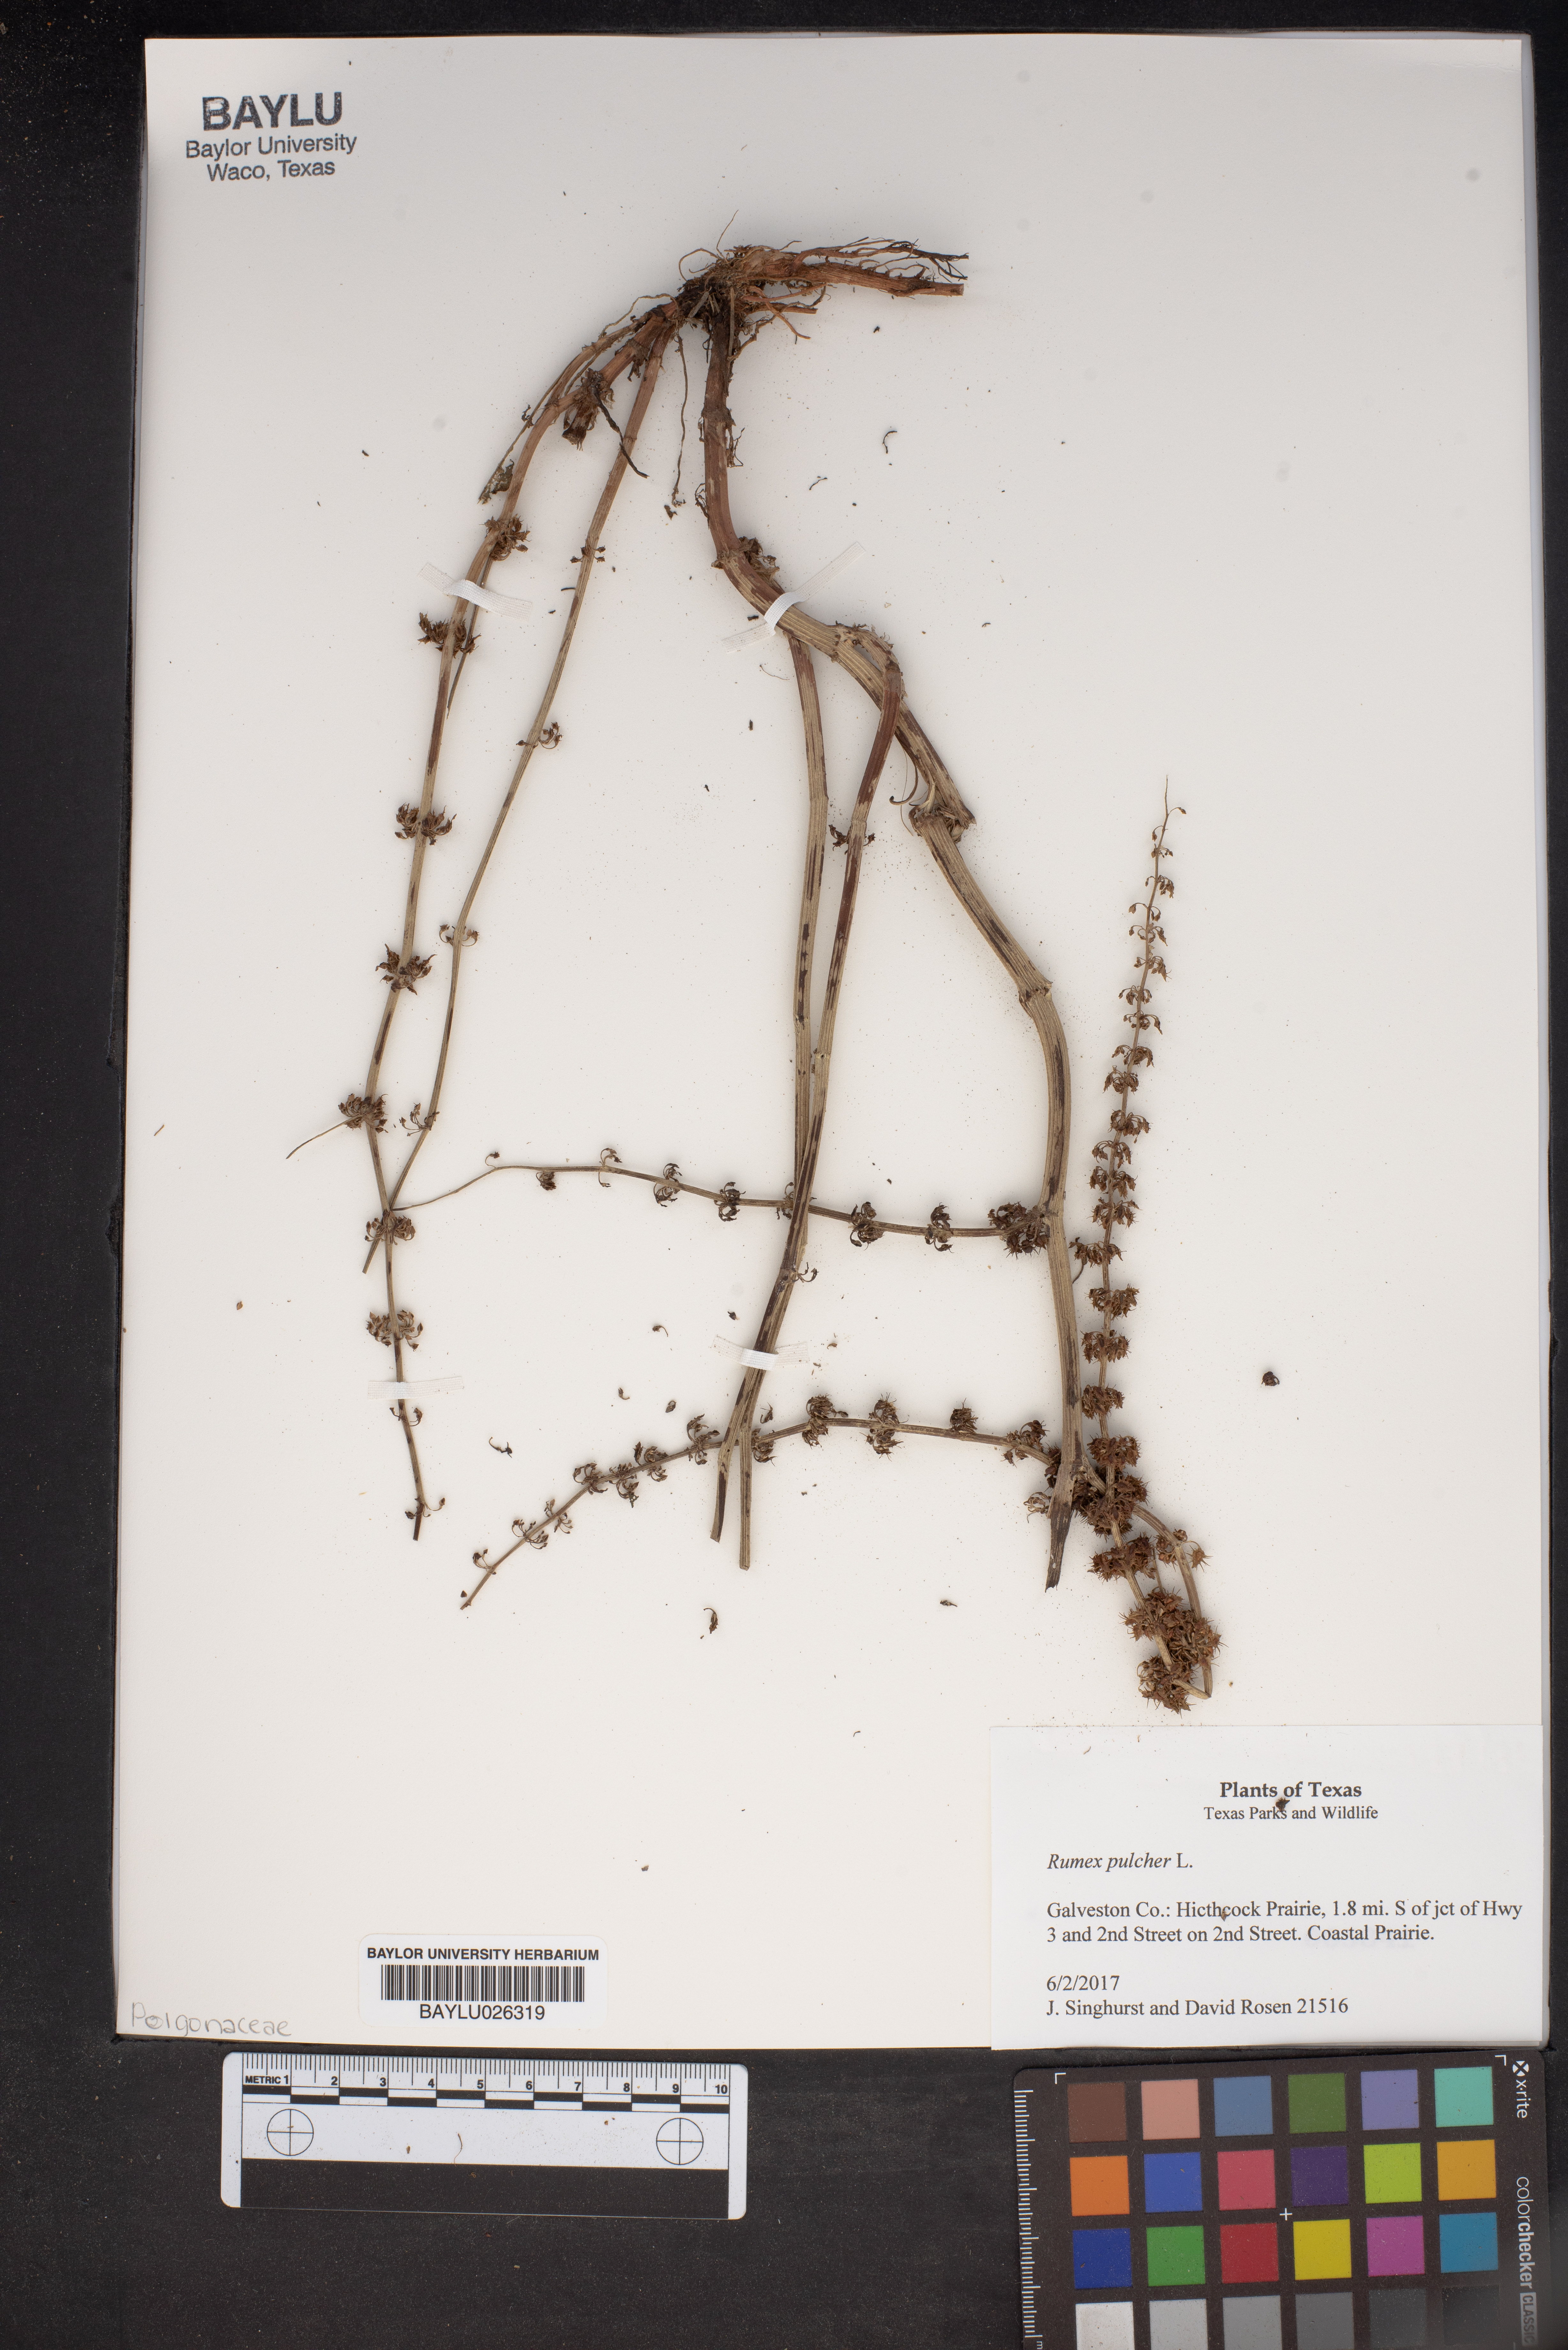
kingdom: Plantae
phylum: Tracheophyta
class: Magnoliopsida
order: Caryophyllales
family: Polygonaceae
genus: Rumex
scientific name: Rumex pulcher
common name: Fiddle dock
